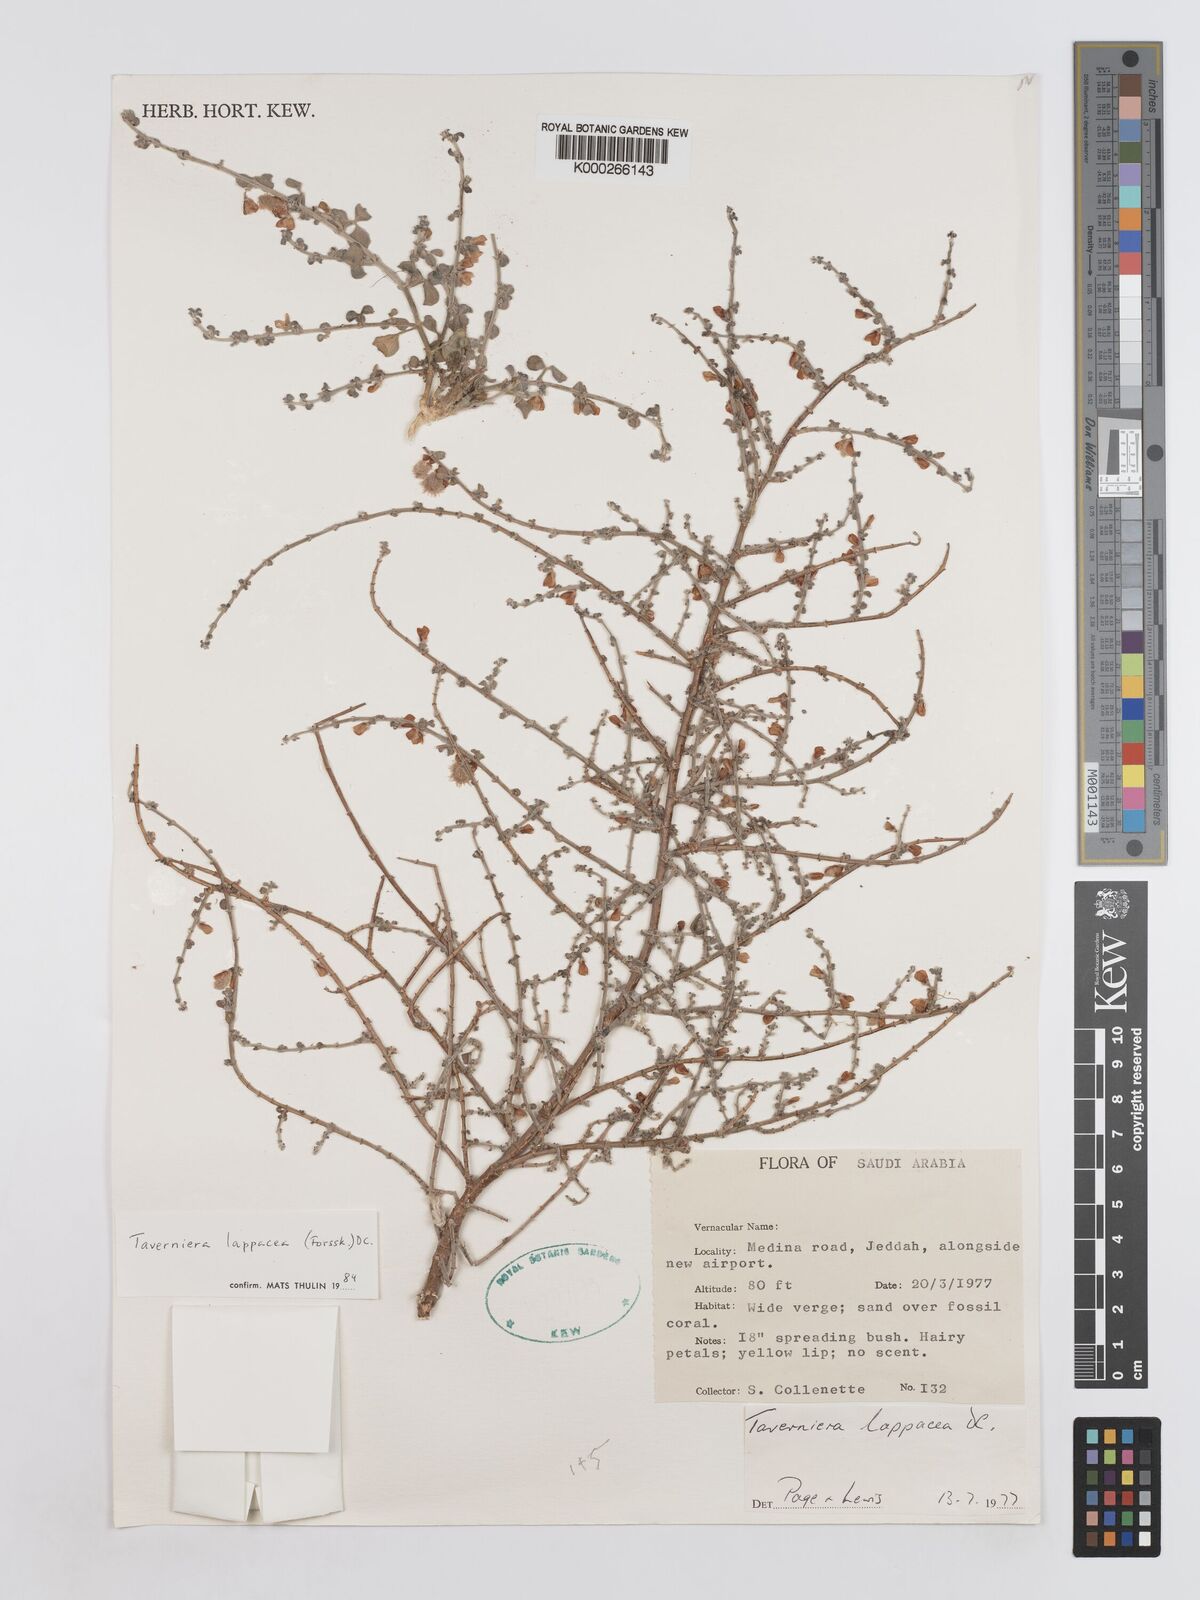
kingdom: Plantae
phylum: Tracheophyta
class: Magnoliopsida
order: Fabales
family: Fabaceae
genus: Taverniera
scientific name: Taverniera lappacea
